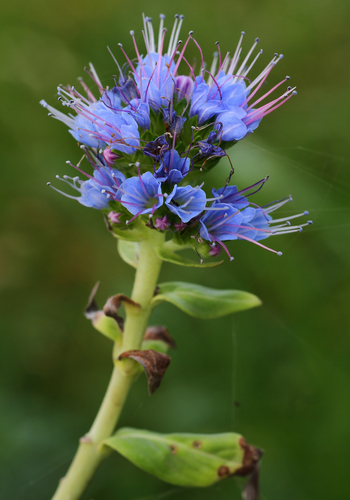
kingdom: Plantae
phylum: Tracheophyta
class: Magnoliopsida
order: Boraginales
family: Boraginaceae
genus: Echium
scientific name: Echium nervosum
